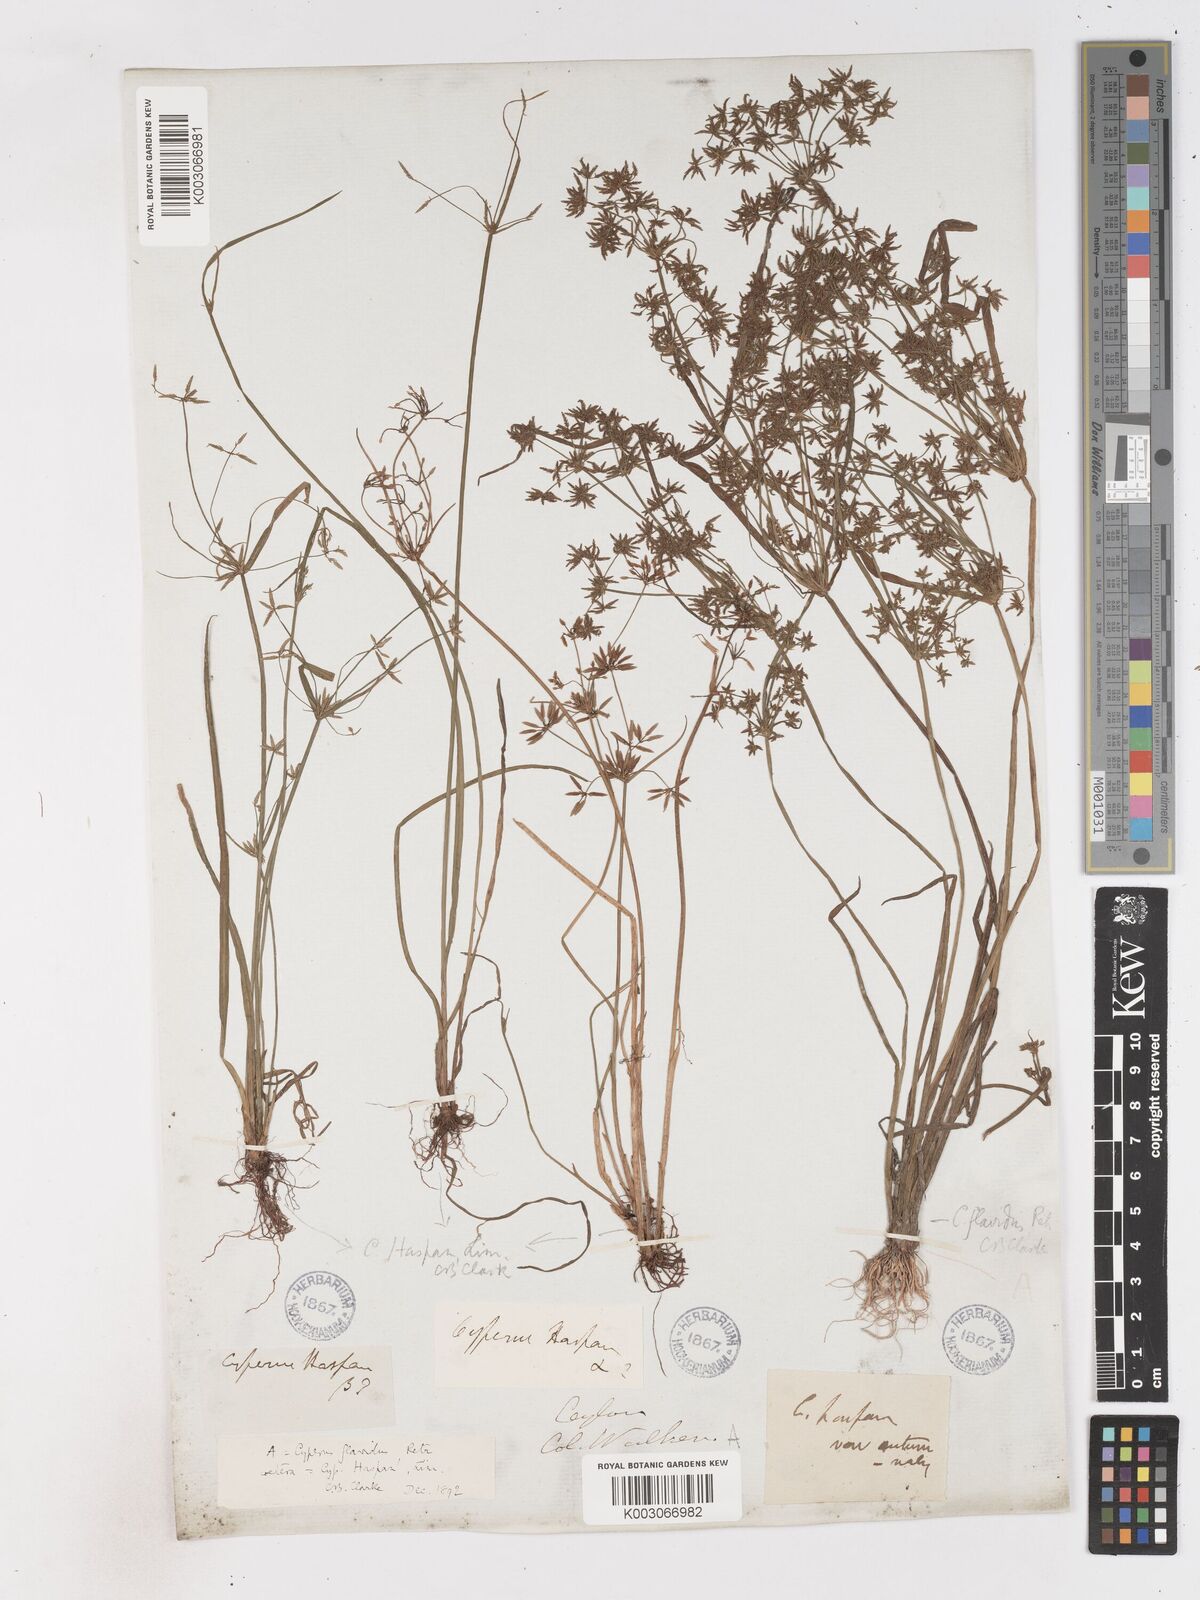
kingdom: Plantae
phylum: Tracheophyta
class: Liliopsida
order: Poales
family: Cyperaceae
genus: Cyperus
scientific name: Cyperus tenuispica
